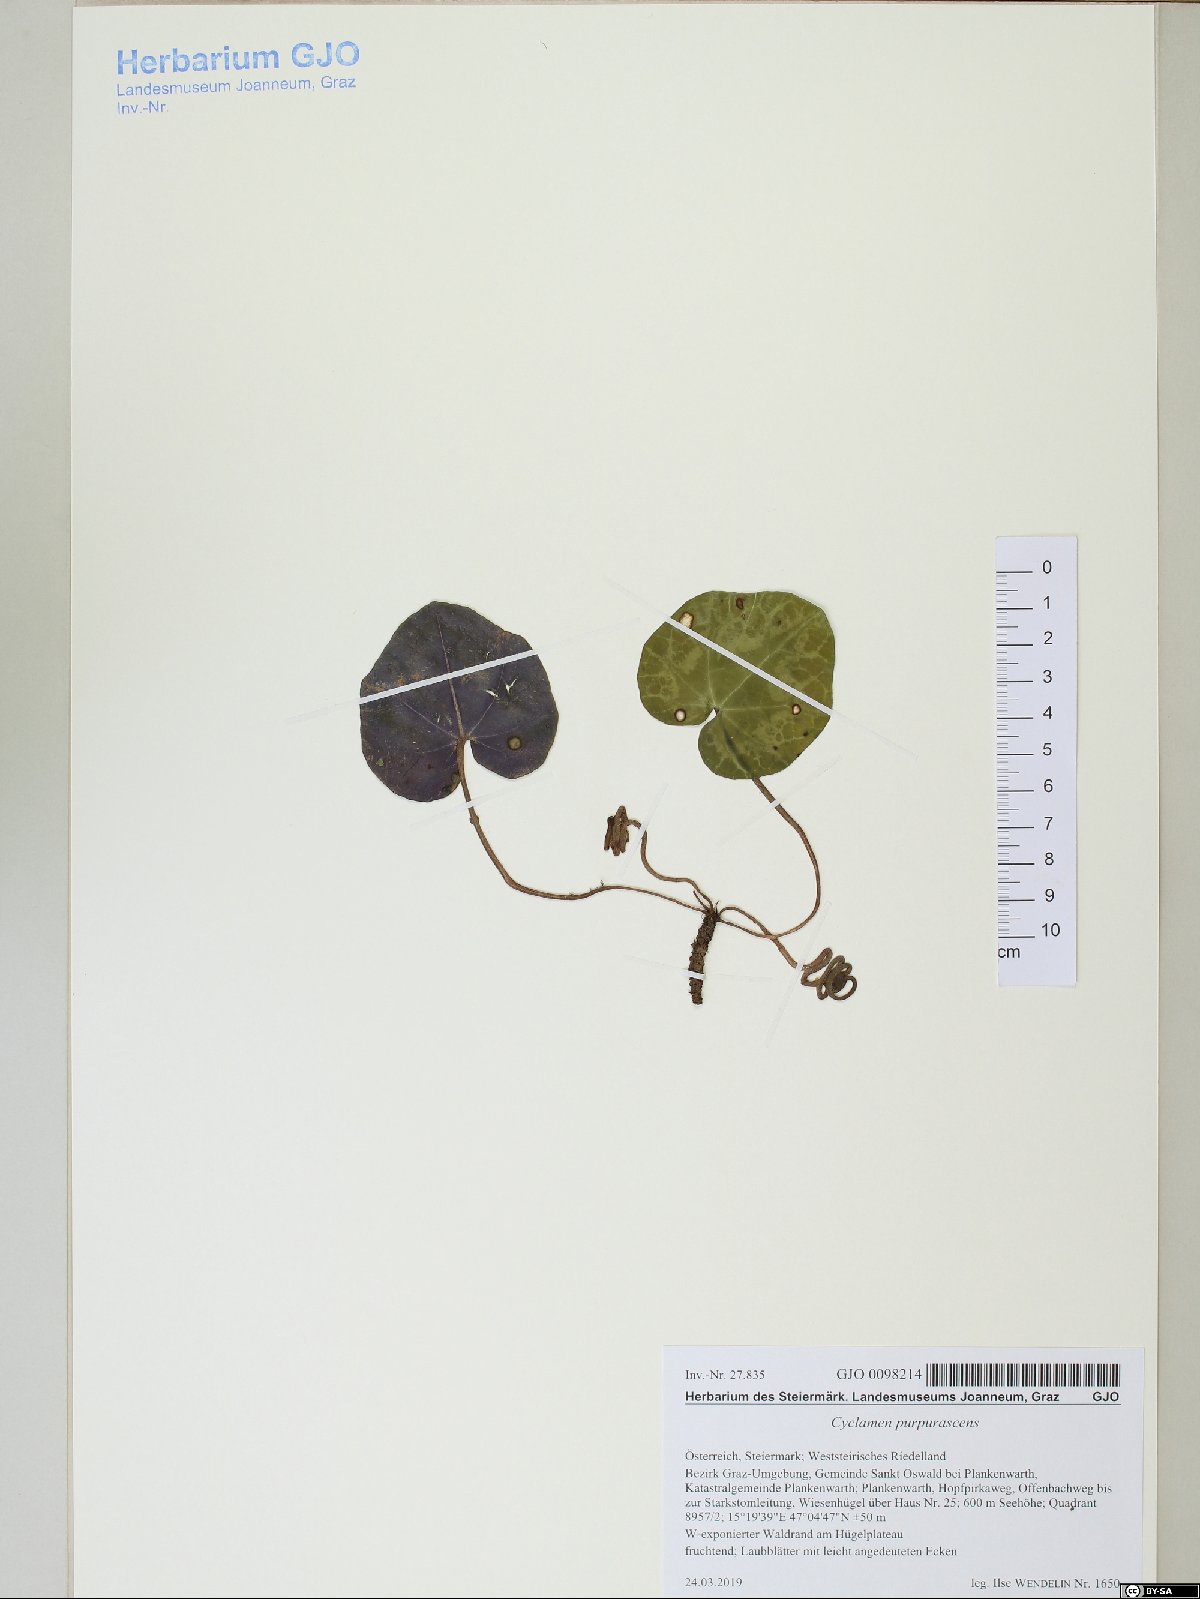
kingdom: Plantae
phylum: Tracheophyta
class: Magnoliopsida
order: Ericales
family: Primulaceae
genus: Cyclamen
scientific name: Cyclamen purpurascens
